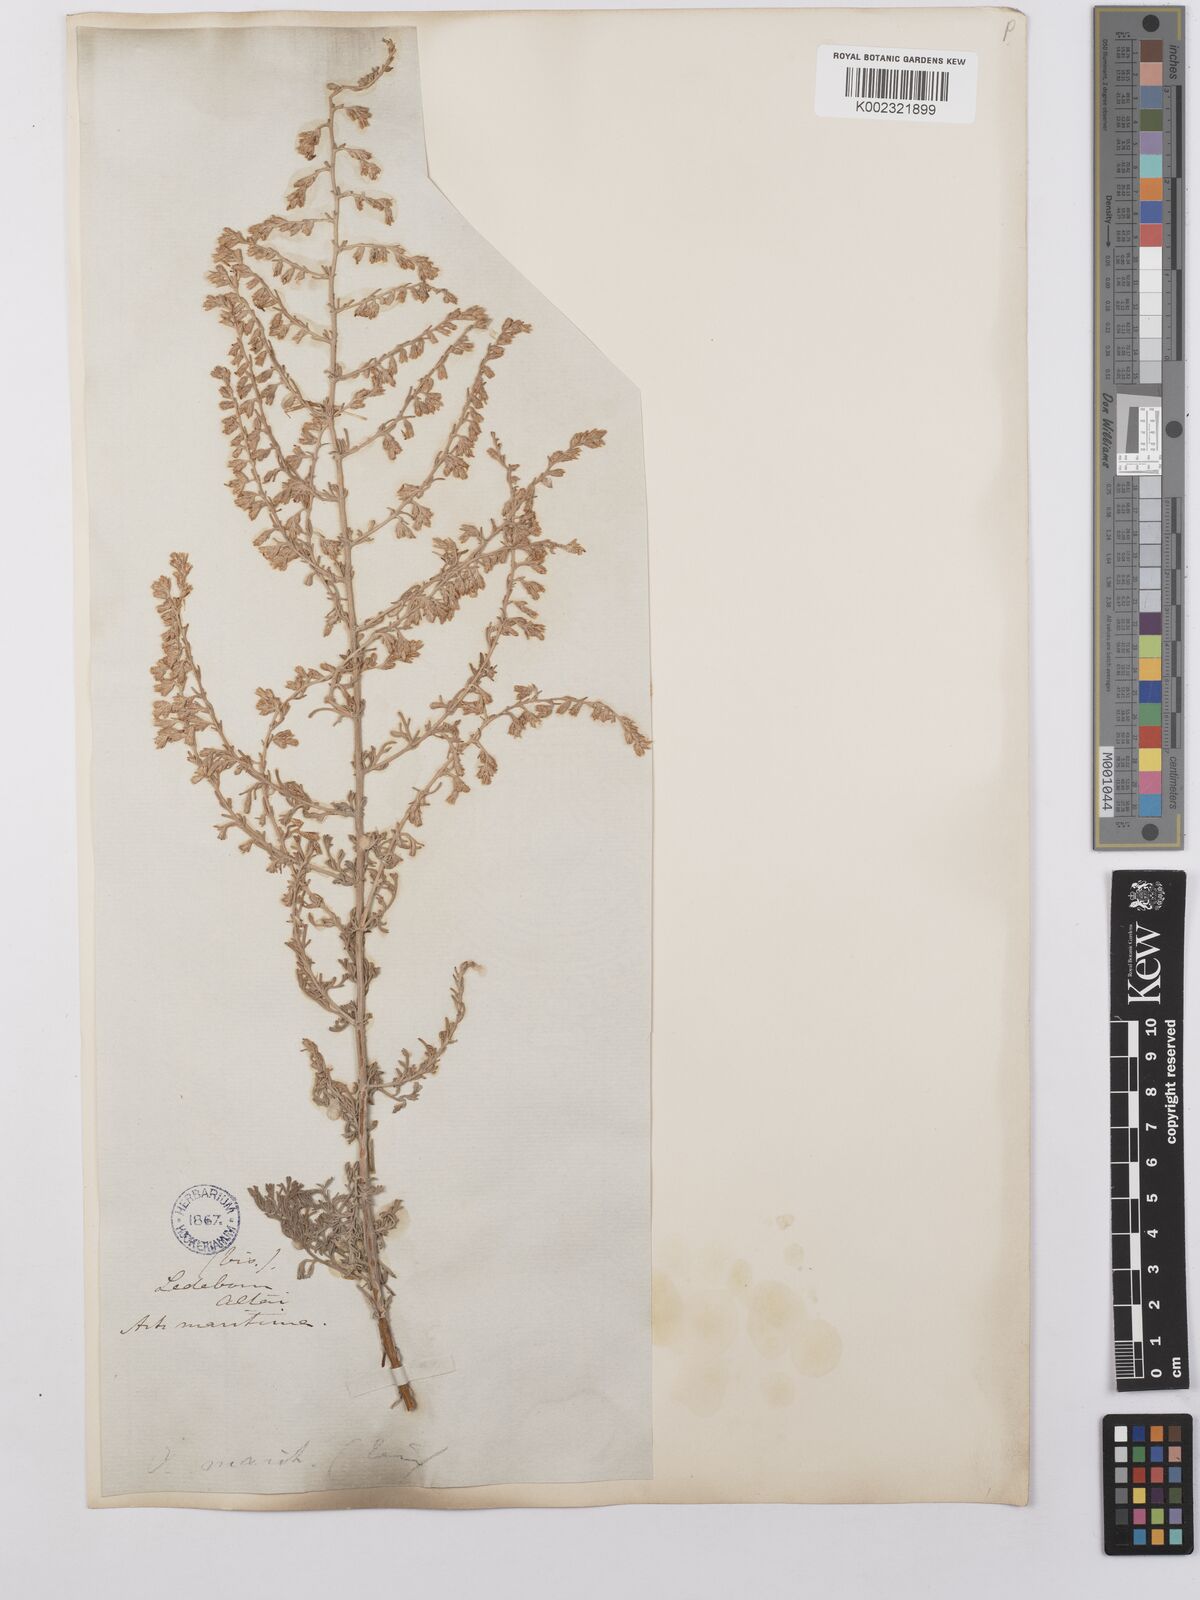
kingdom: Plantae
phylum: Tracheophyta
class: Magnoliopsida
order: Asterales
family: Asteraceae
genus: Artemisia
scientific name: Artemisia compacta
